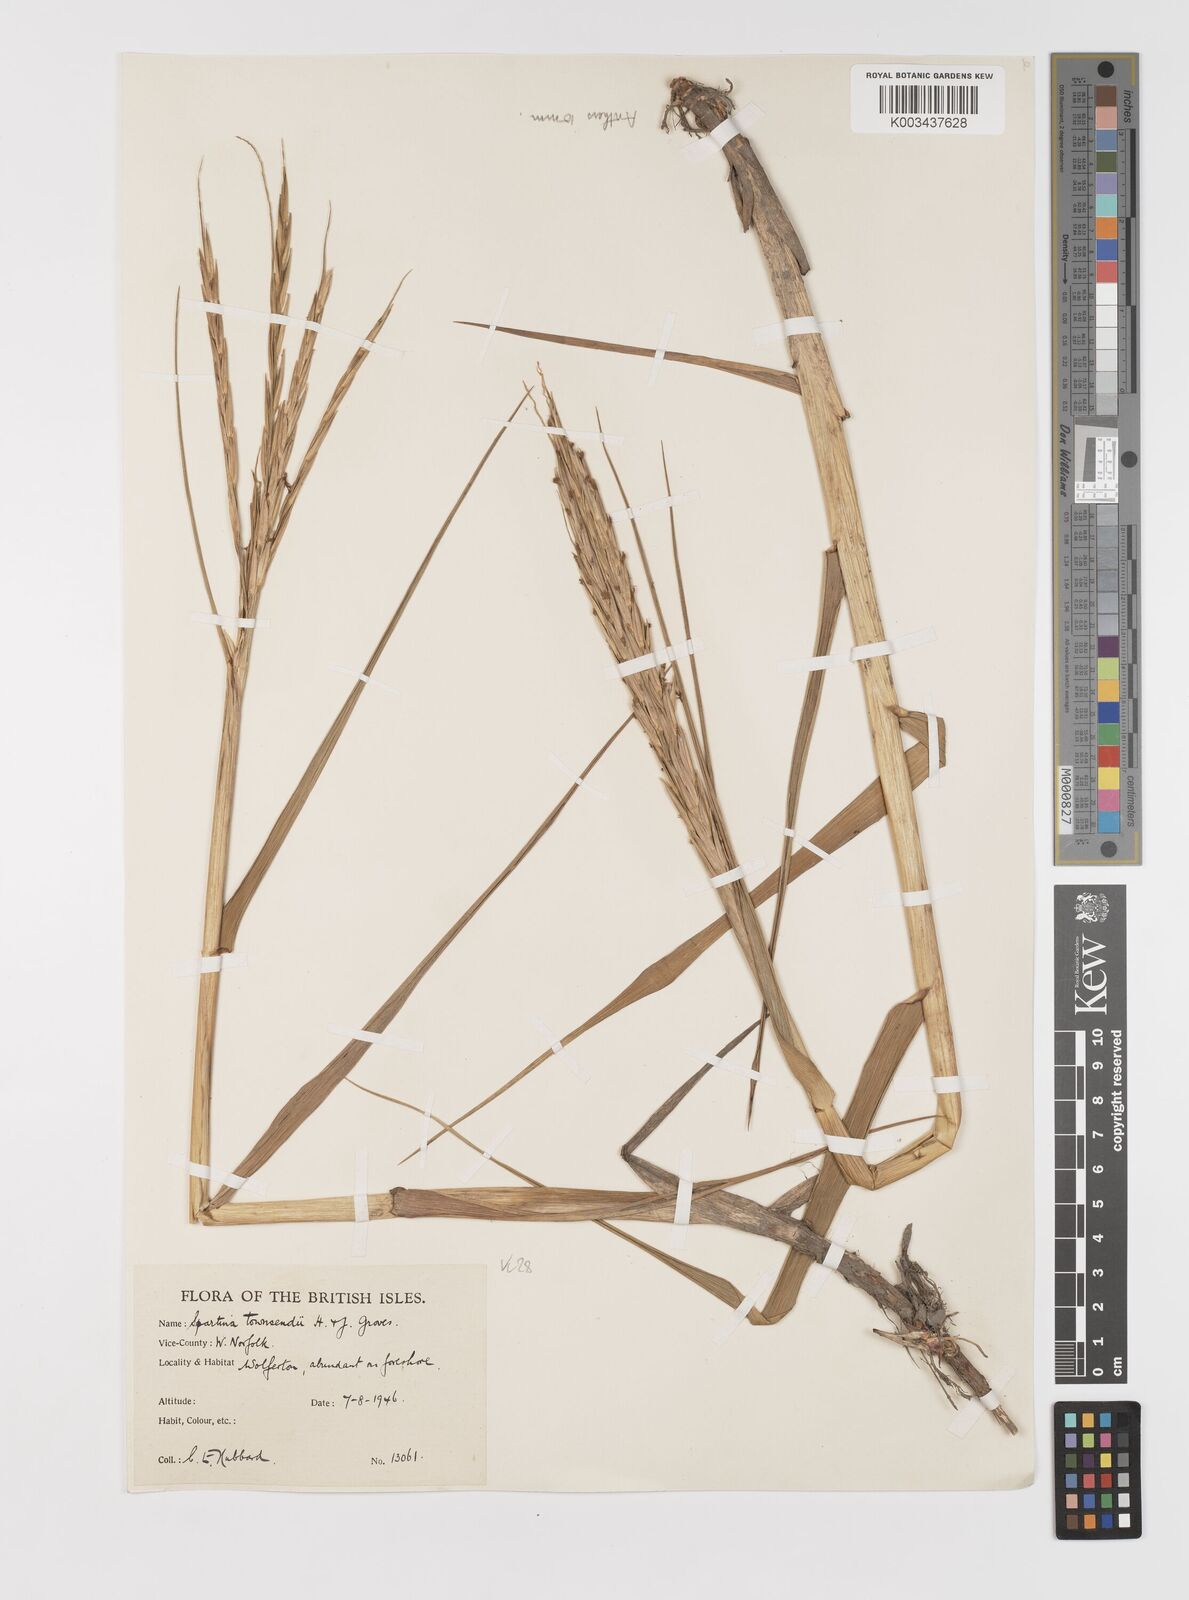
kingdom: Plantae
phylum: Tracheophyta
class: Liliopsida
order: Poales
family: Poaceae
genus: Sporobolus
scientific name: Sporobolus anglicus
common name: English cordgrass
